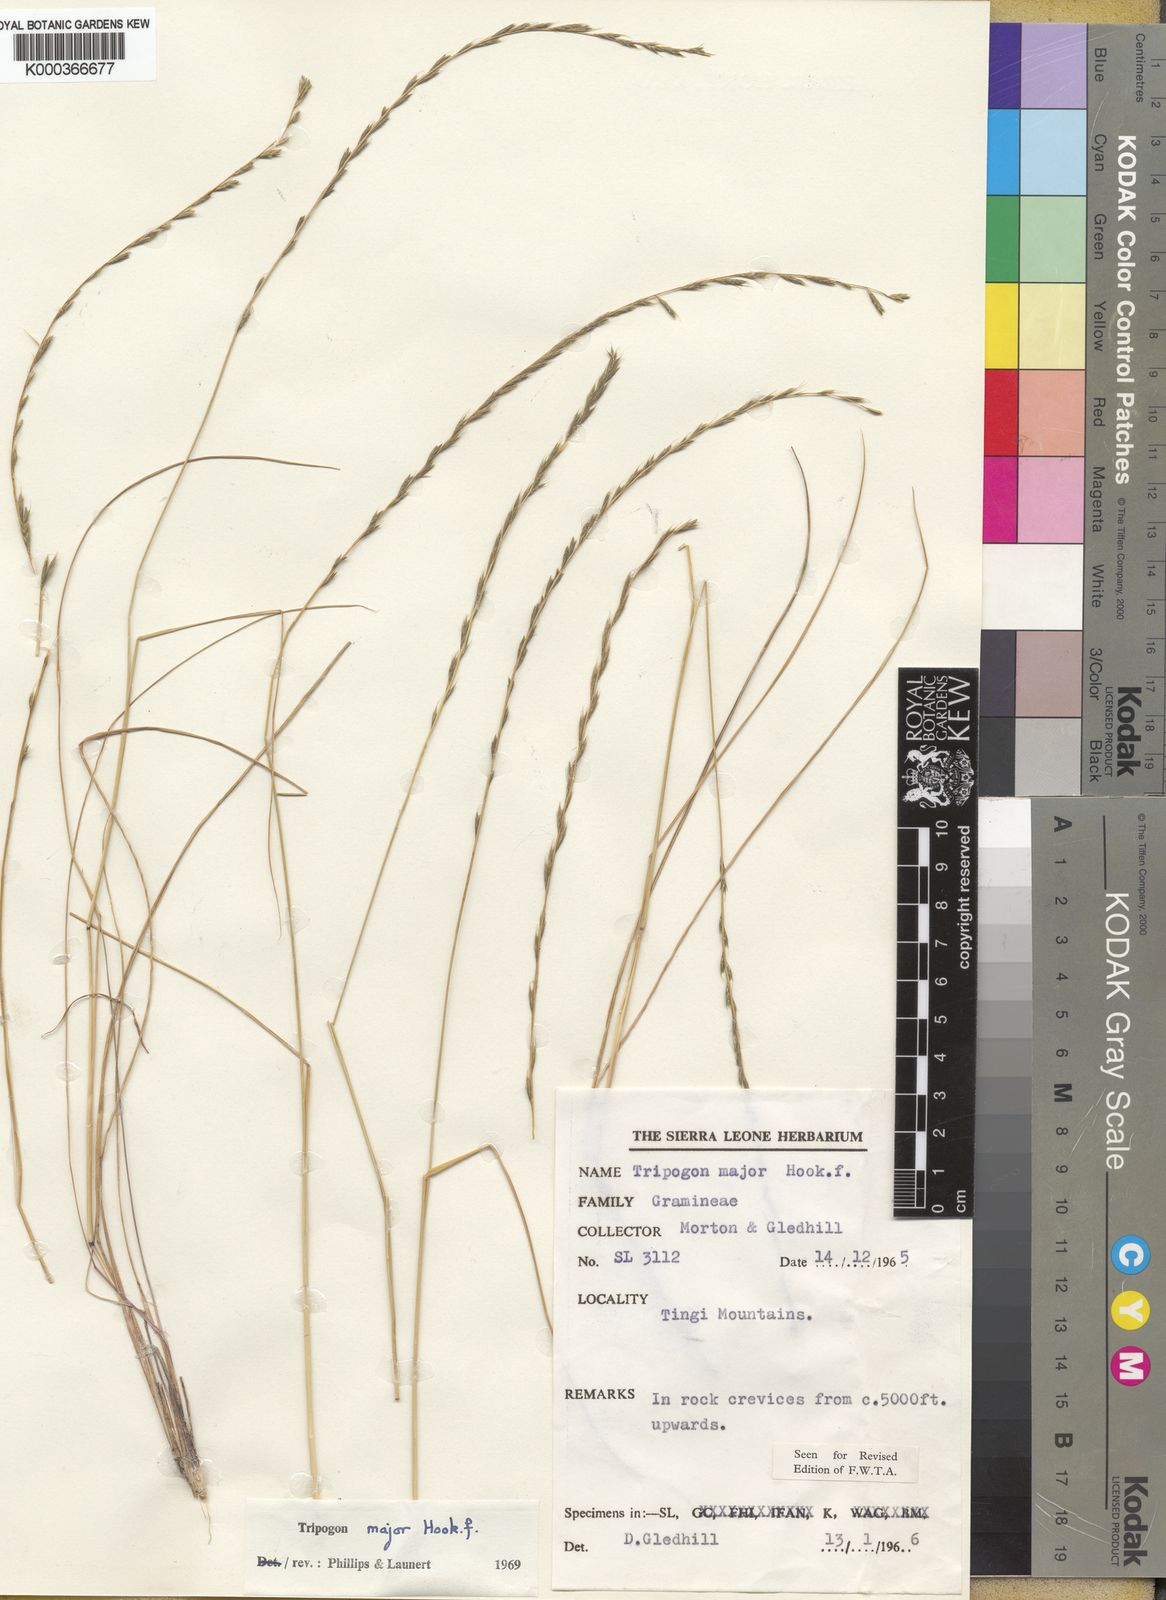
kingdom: Plantae
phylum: Tracheophyta
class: Liliopsida
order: Poales
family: Poaceae
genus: Tripogon
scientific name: Tripogon major
